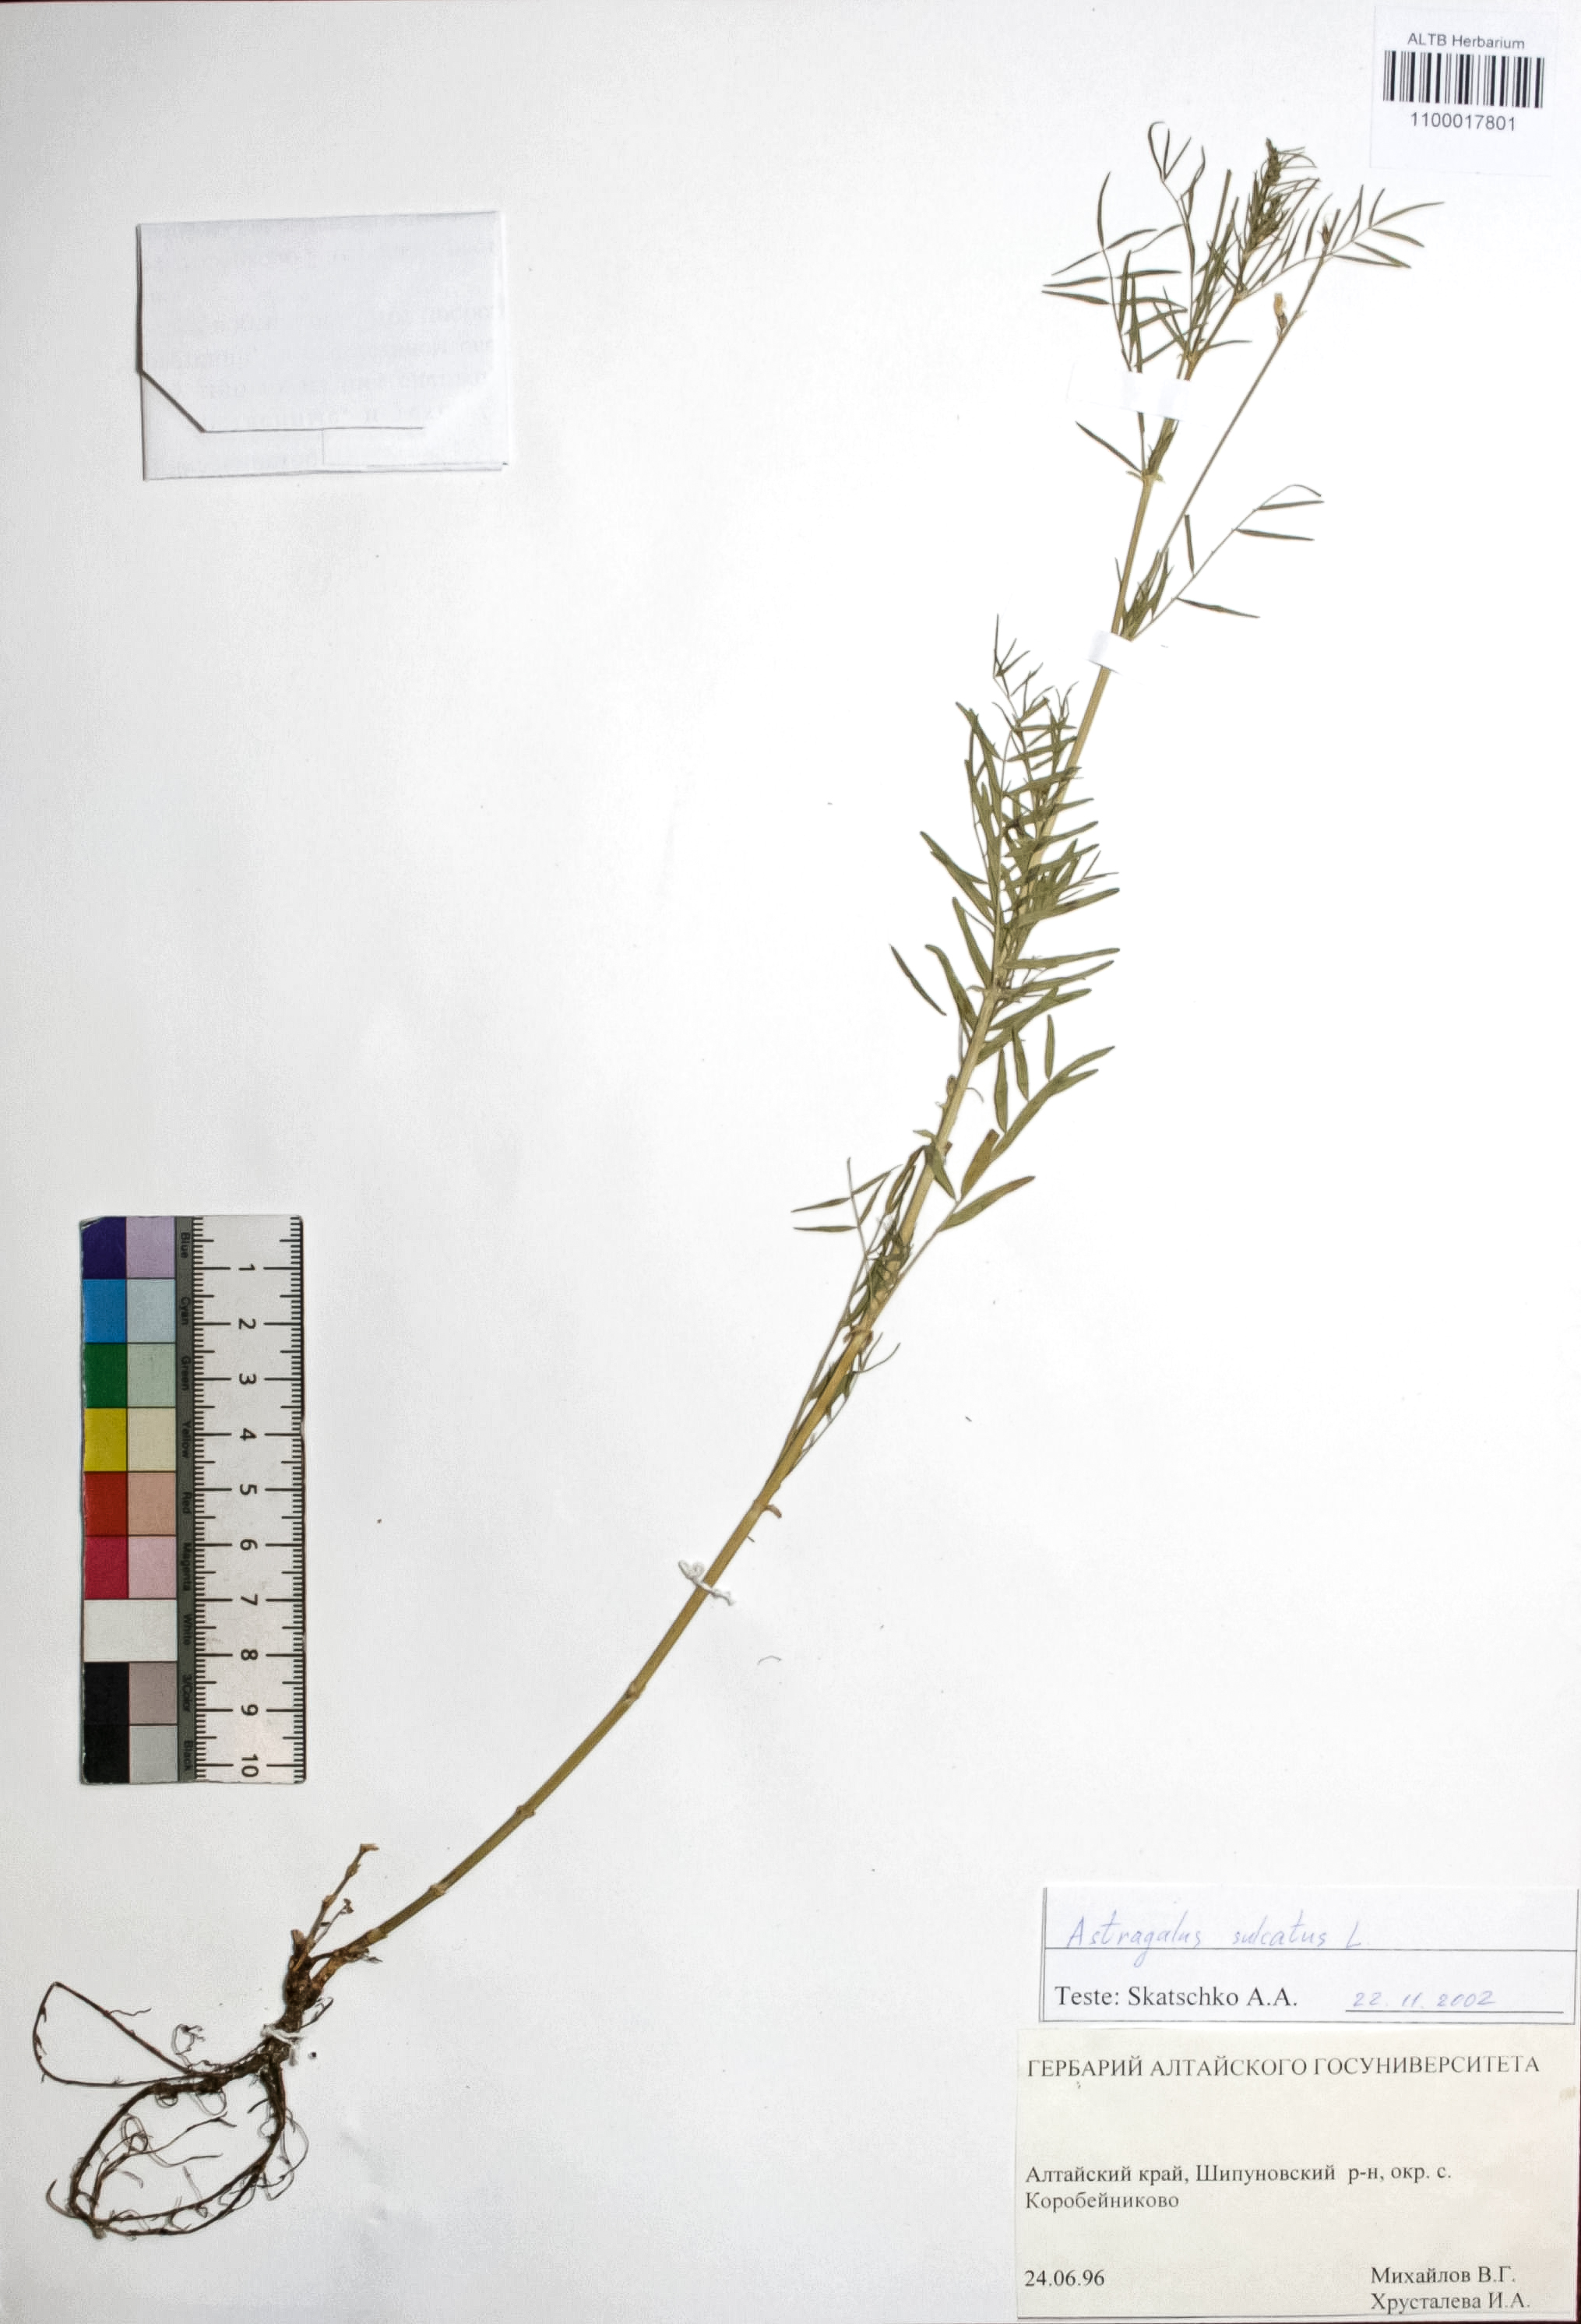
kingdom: Plantae
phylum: Tracheophyta
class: Magnoliopsida
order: Fabales
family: Fabaceae
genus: Astragalus
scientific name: Astragalus sulcatus
